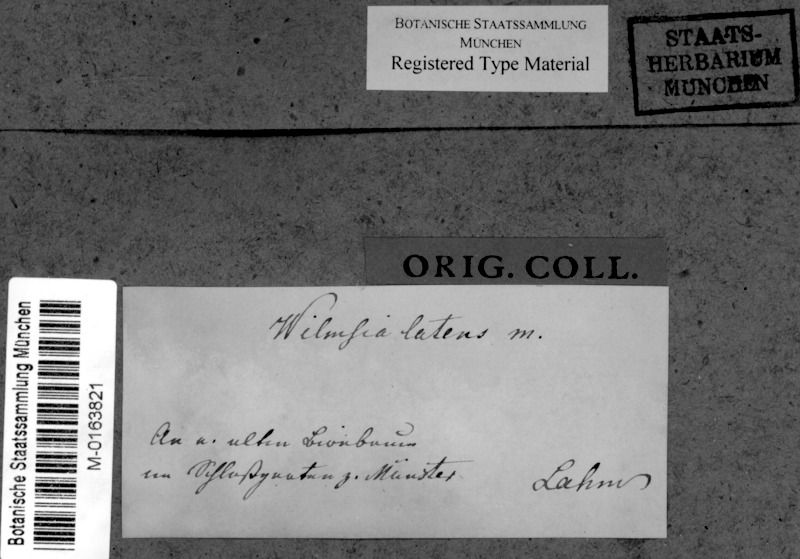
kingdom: Fungi
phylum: Ascomycota
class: Lecanoromycetes
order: Gyalectales
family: Gyalectaceae
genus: Pachyphiale
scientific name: Pachyphiale fagicola
